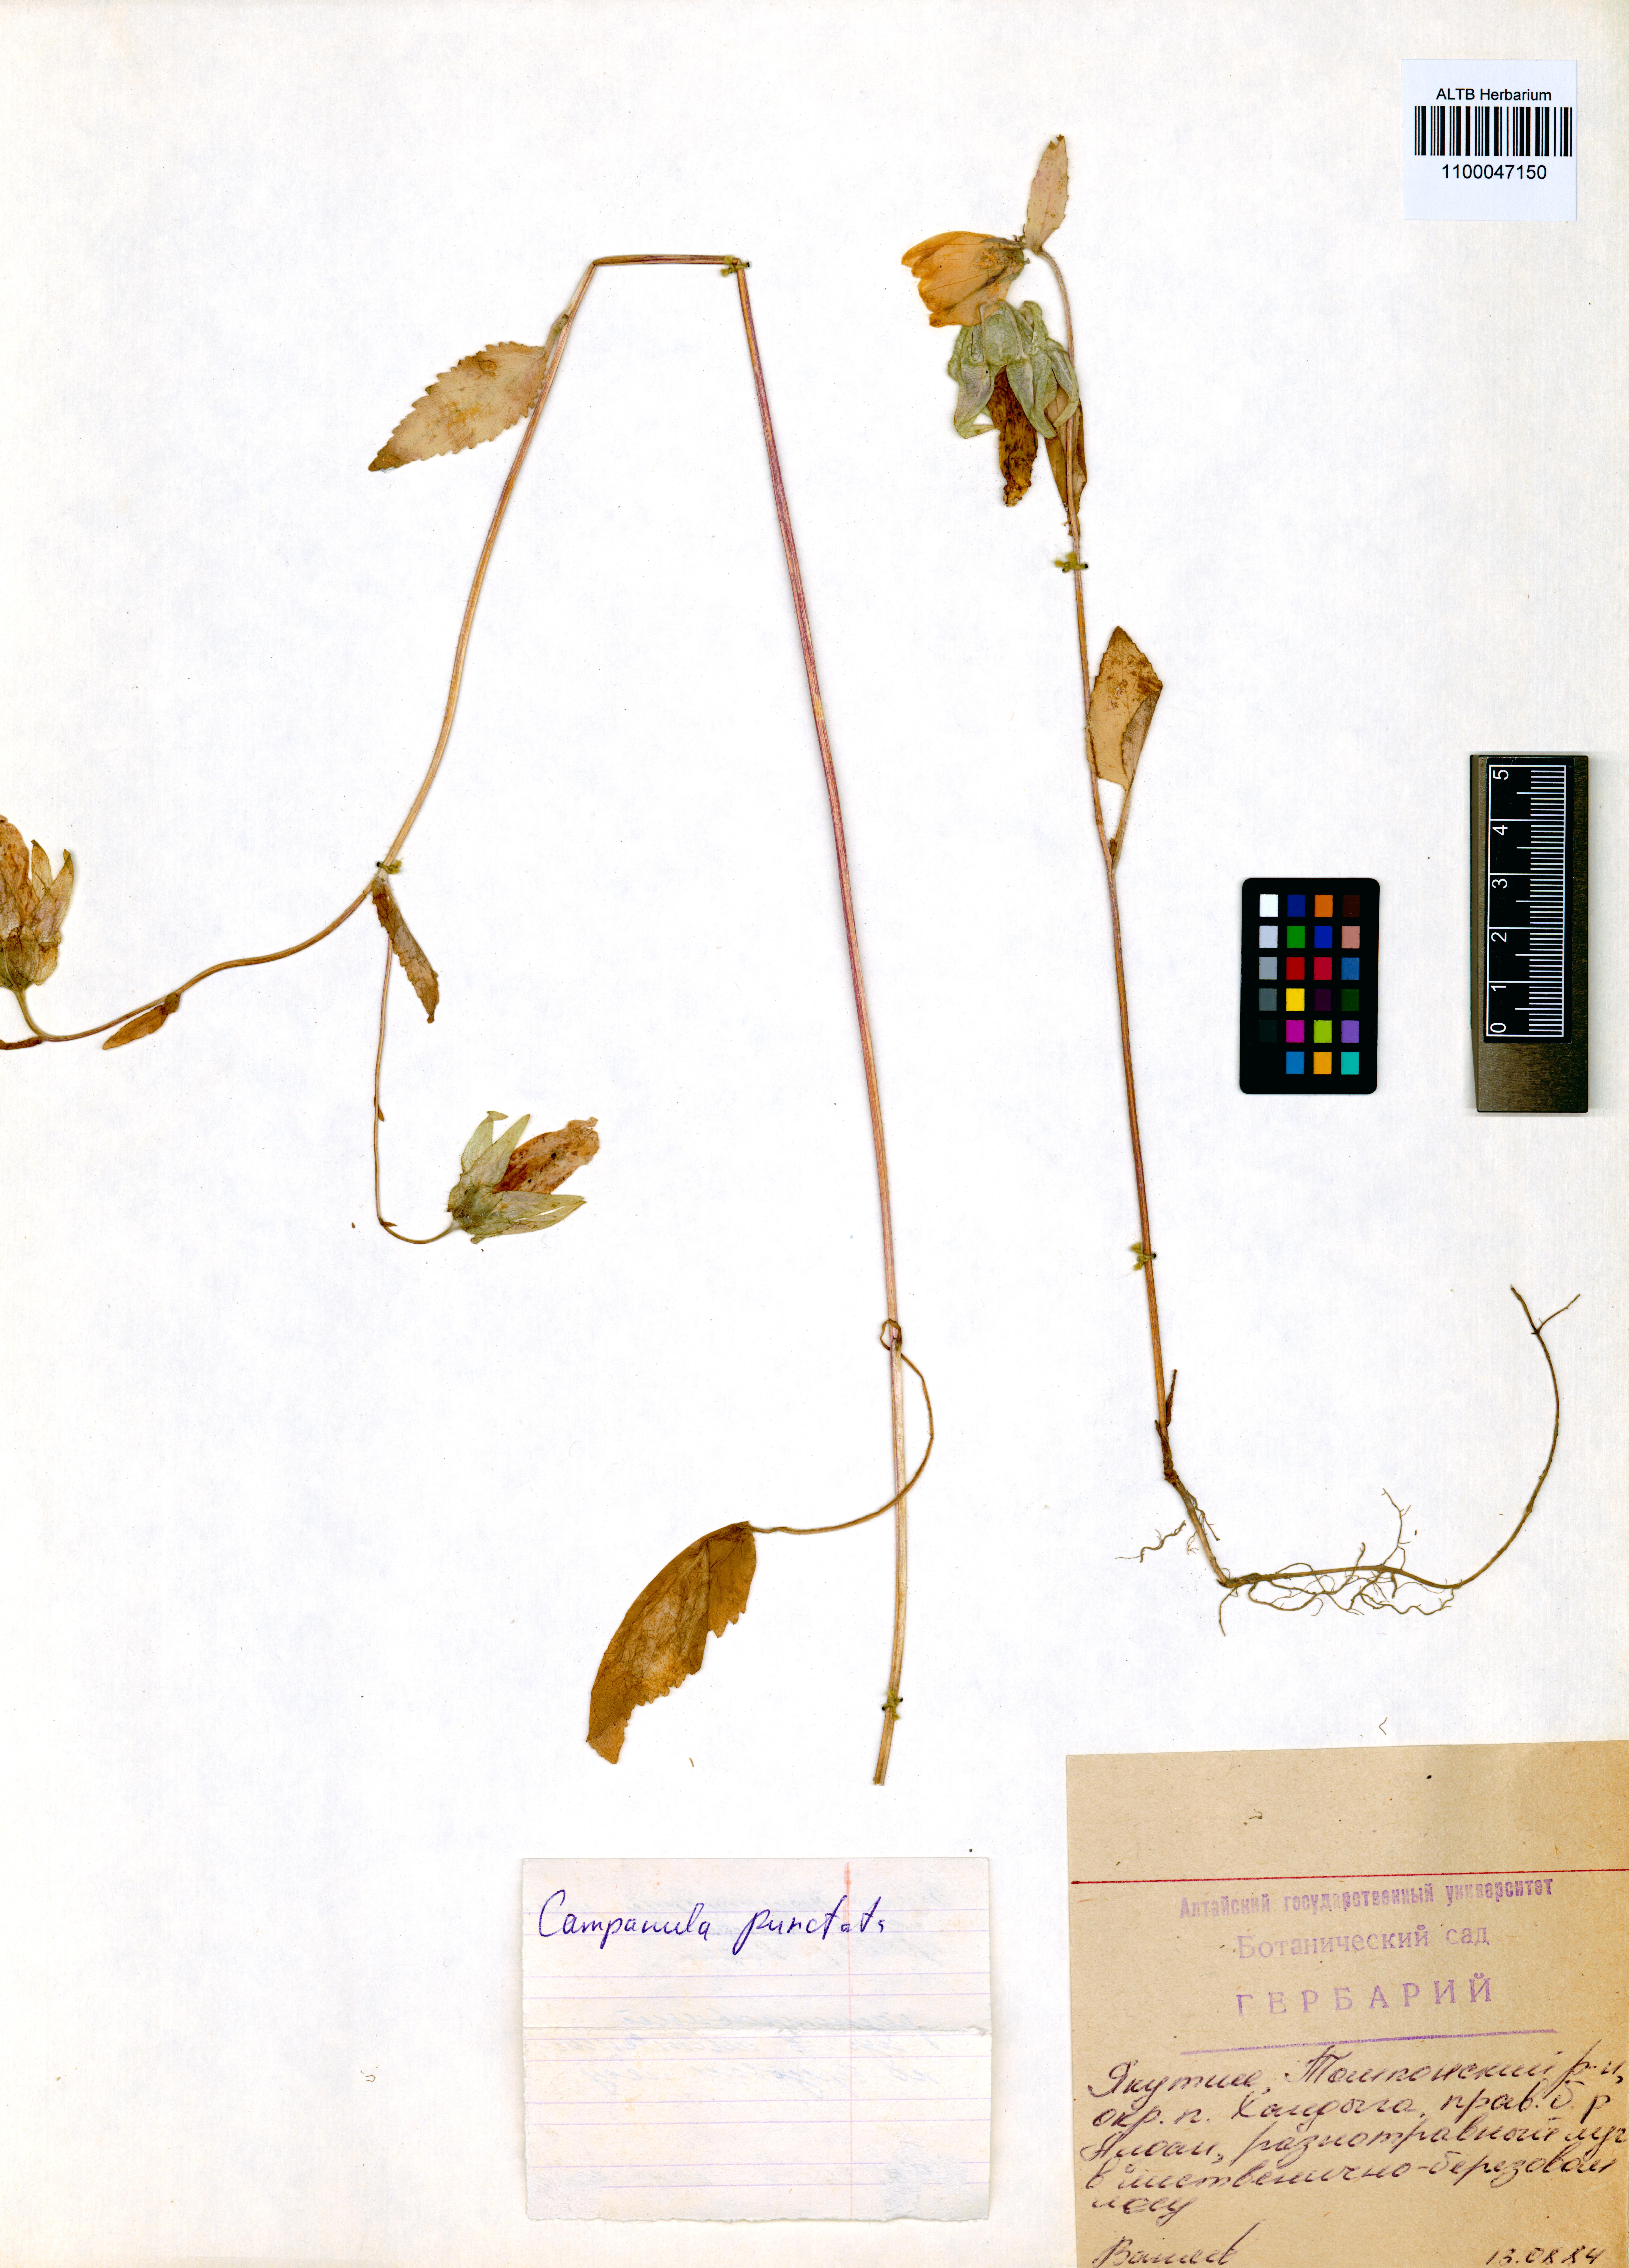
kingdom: Plantae
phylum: Tracheophyta
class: Magnoliopsida
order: Asterales
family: Campanulaceae
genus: Campanula
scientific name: Campanula punctata
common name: Spotted bellflower
